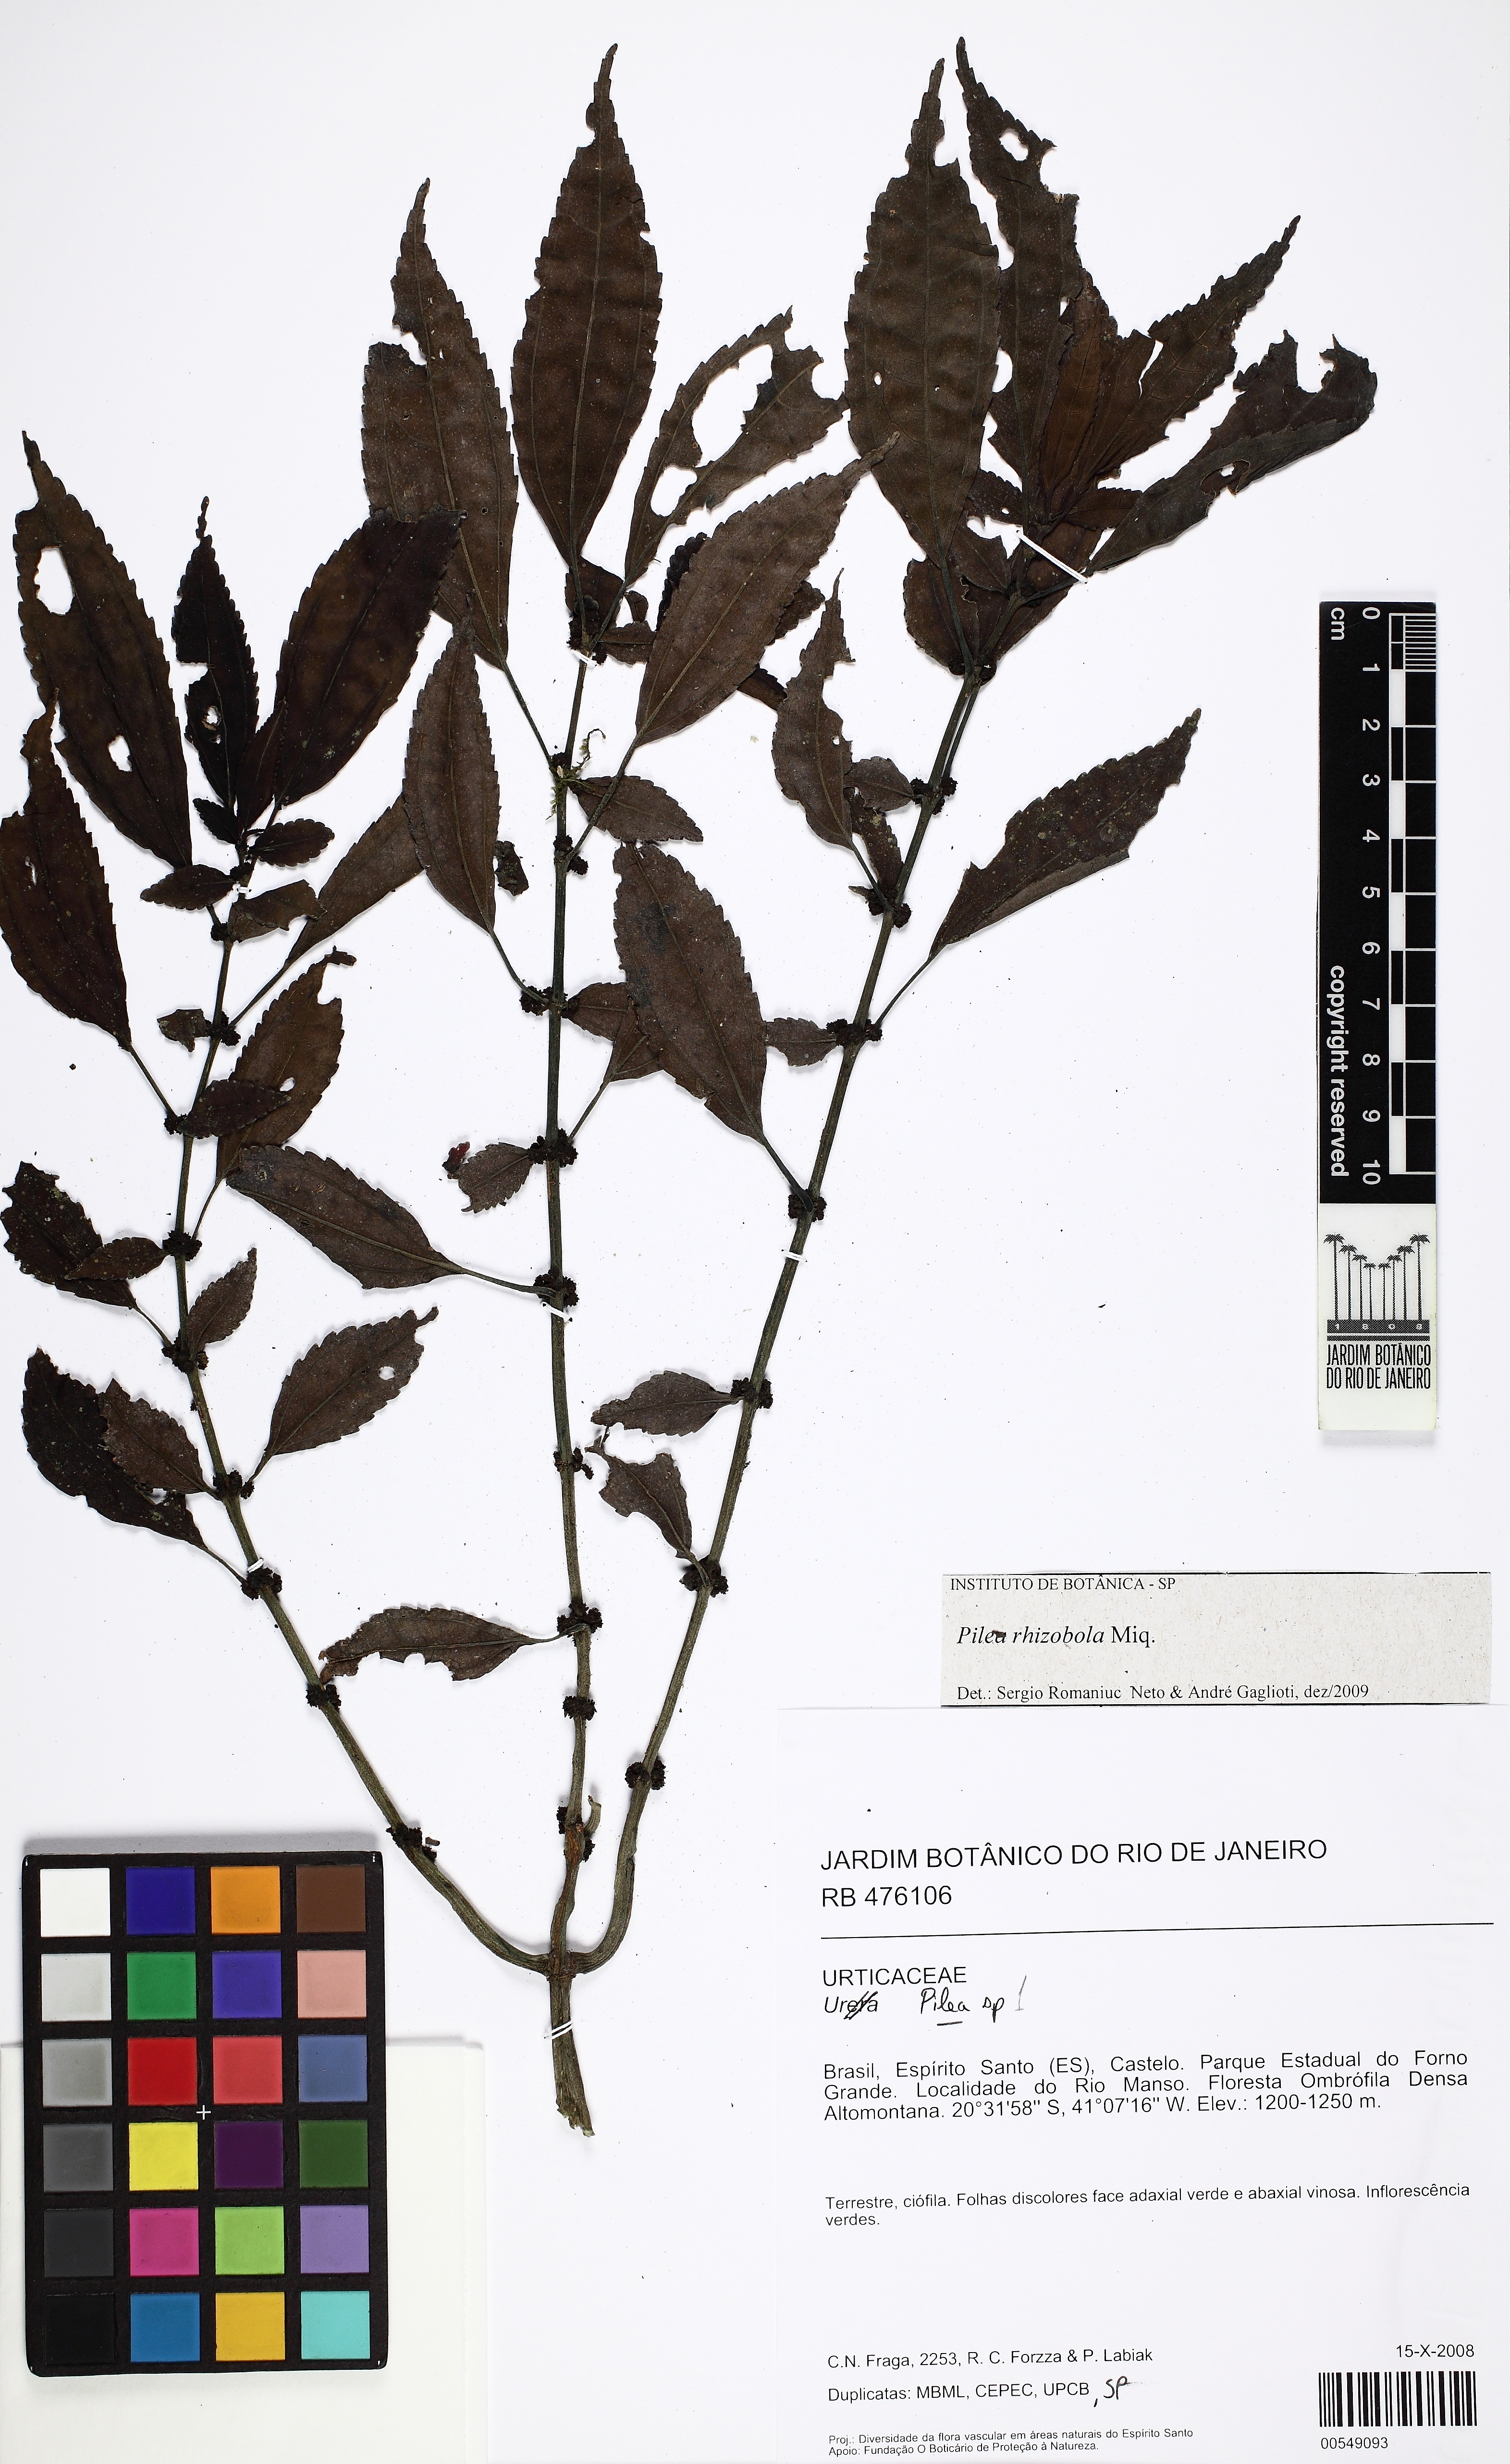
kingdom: Plantae
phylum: Tracheophyta
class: Magnoliopsida
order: Rosales
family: Urticaceae
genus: Pilea
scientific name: Pilea rhizobola
